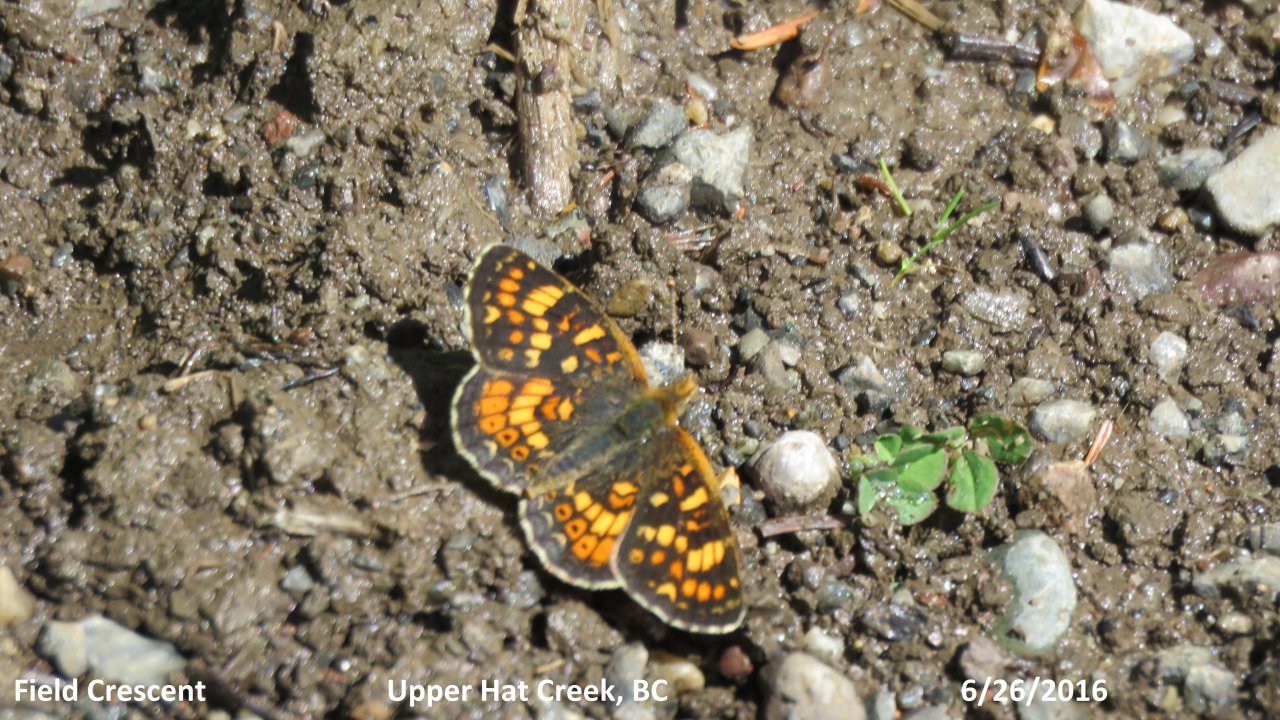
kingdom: Animalia
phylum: Arthropoda
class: Insecta
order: Lepidoptera
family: Nymphalidae
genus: Phyciodes
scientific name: Phyciodes tharos
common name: Field Crescent
